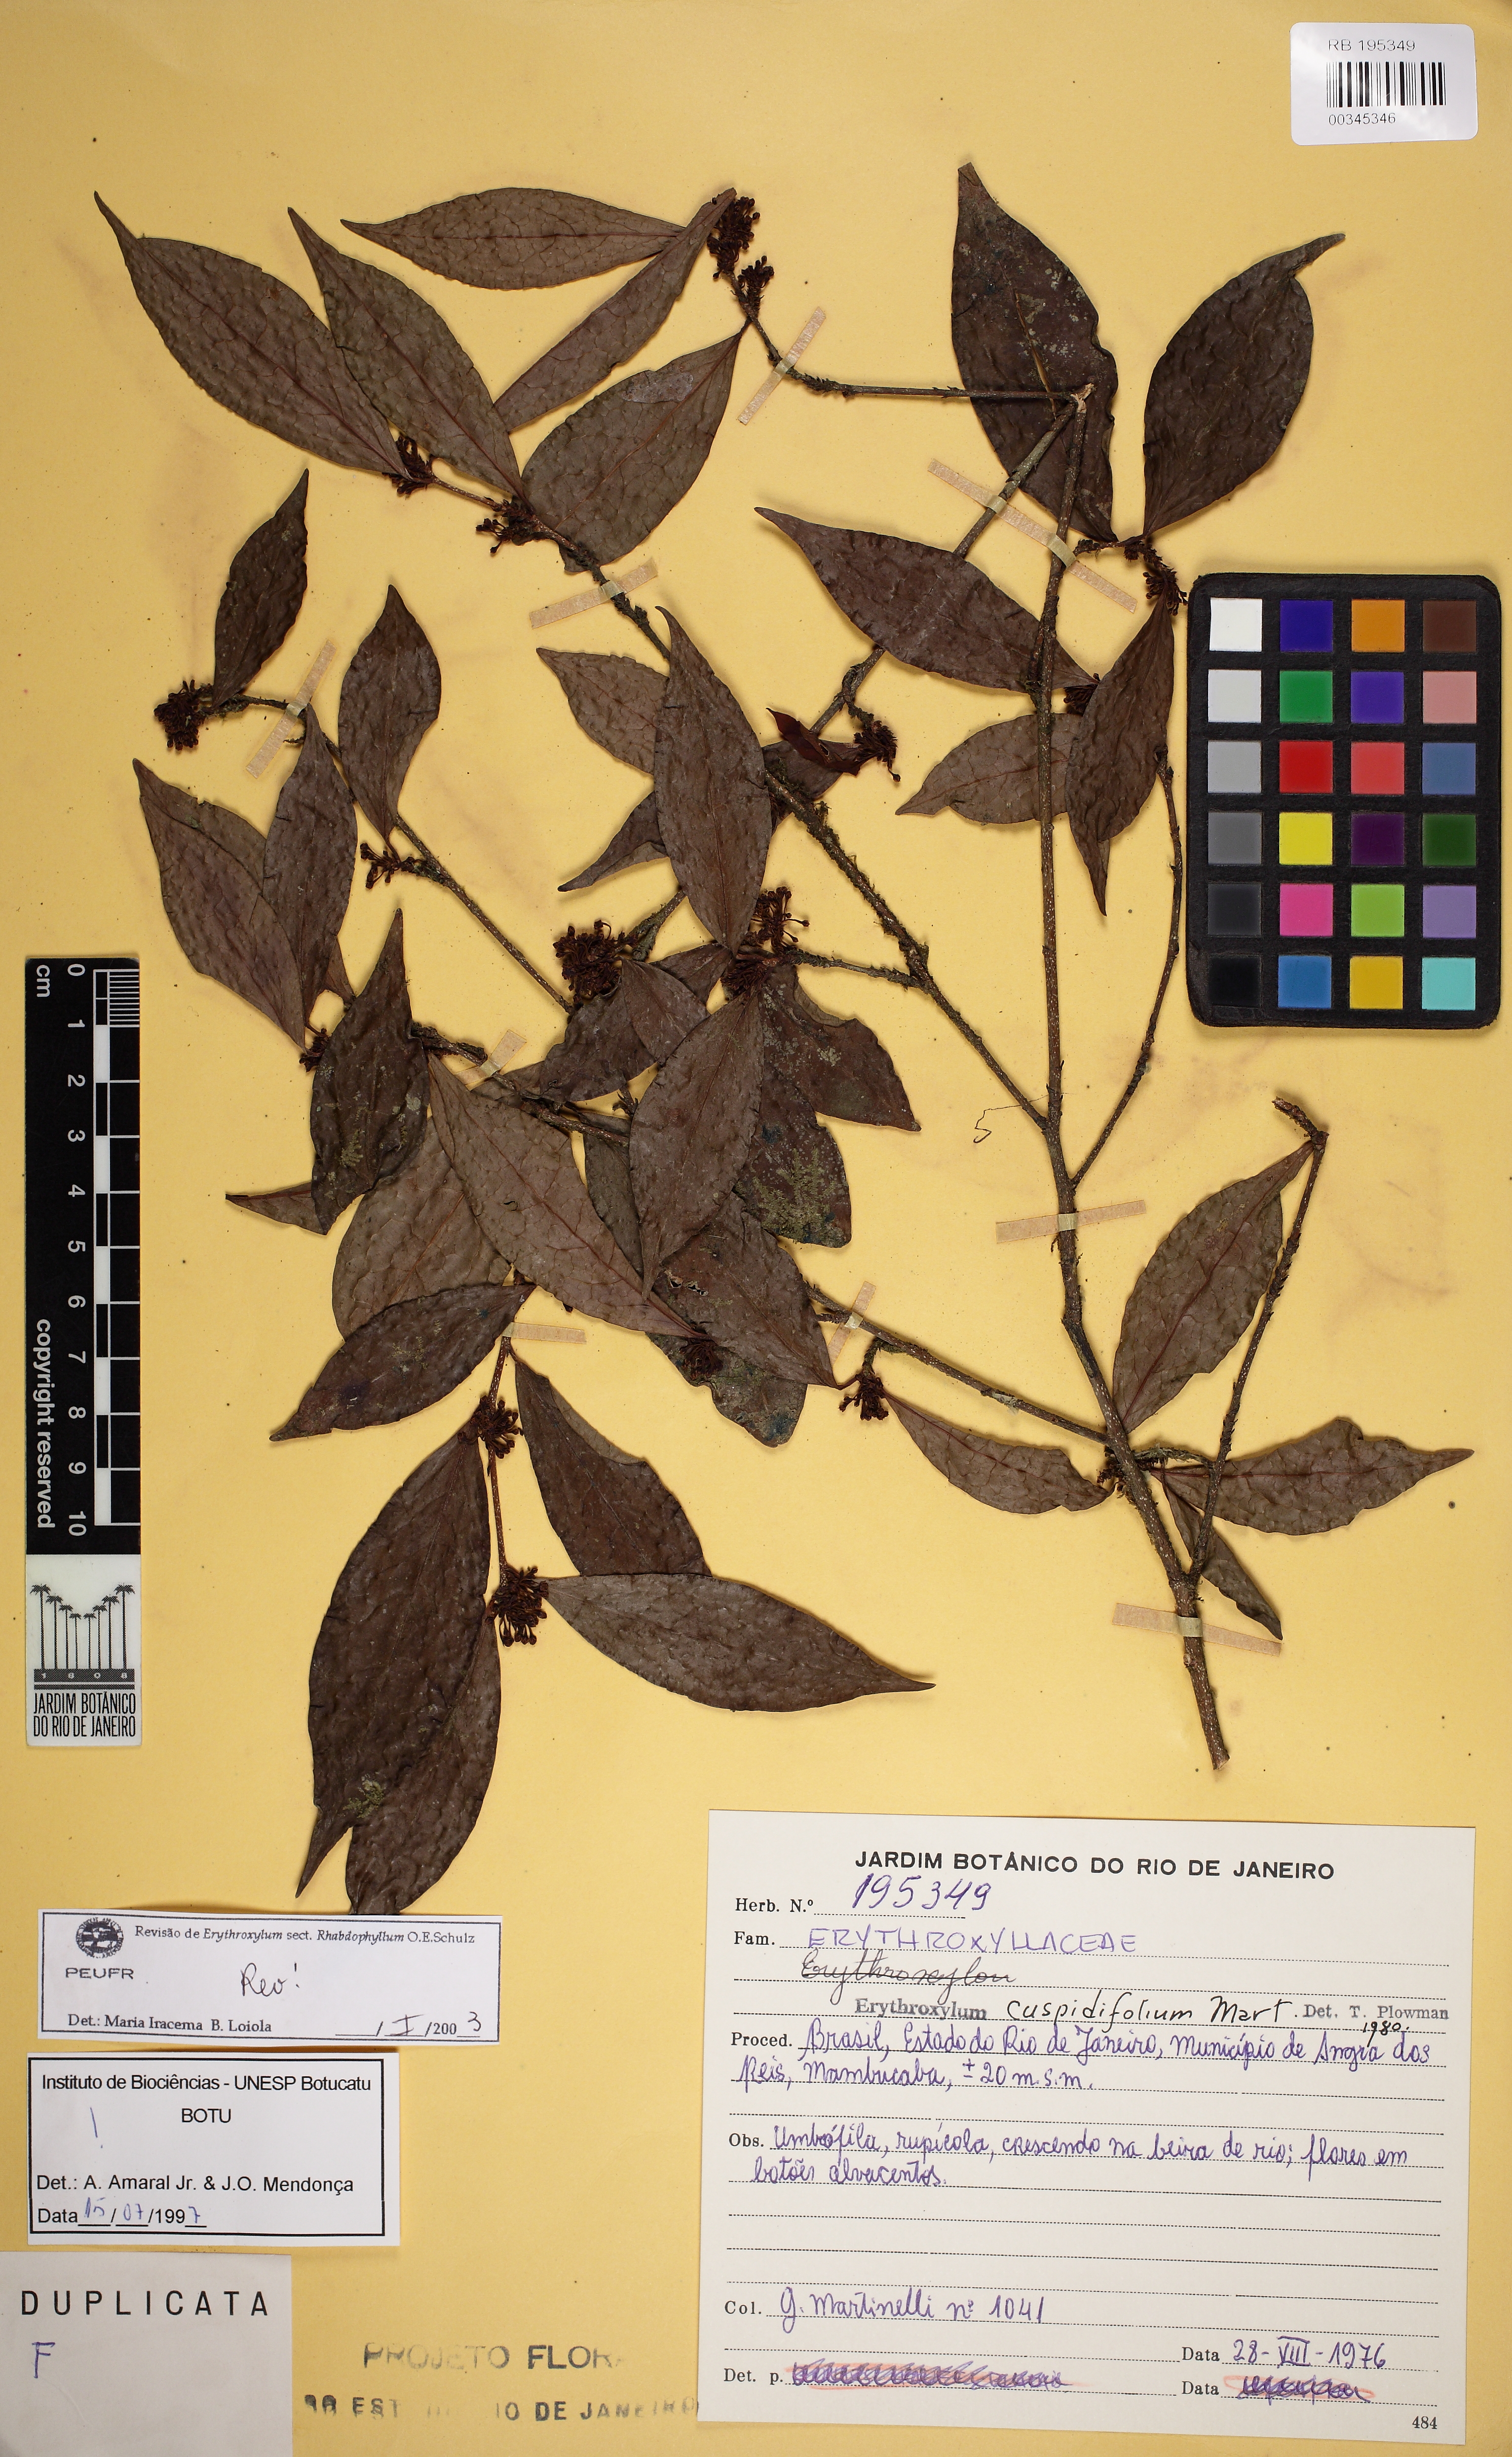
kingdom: Plantae
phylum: Tracheophyta
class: Magnoliopsida
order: Malpighiales
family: Erythroxylaceae
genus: Erythroxylum
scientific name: Erythroxylum cuspidifolium
